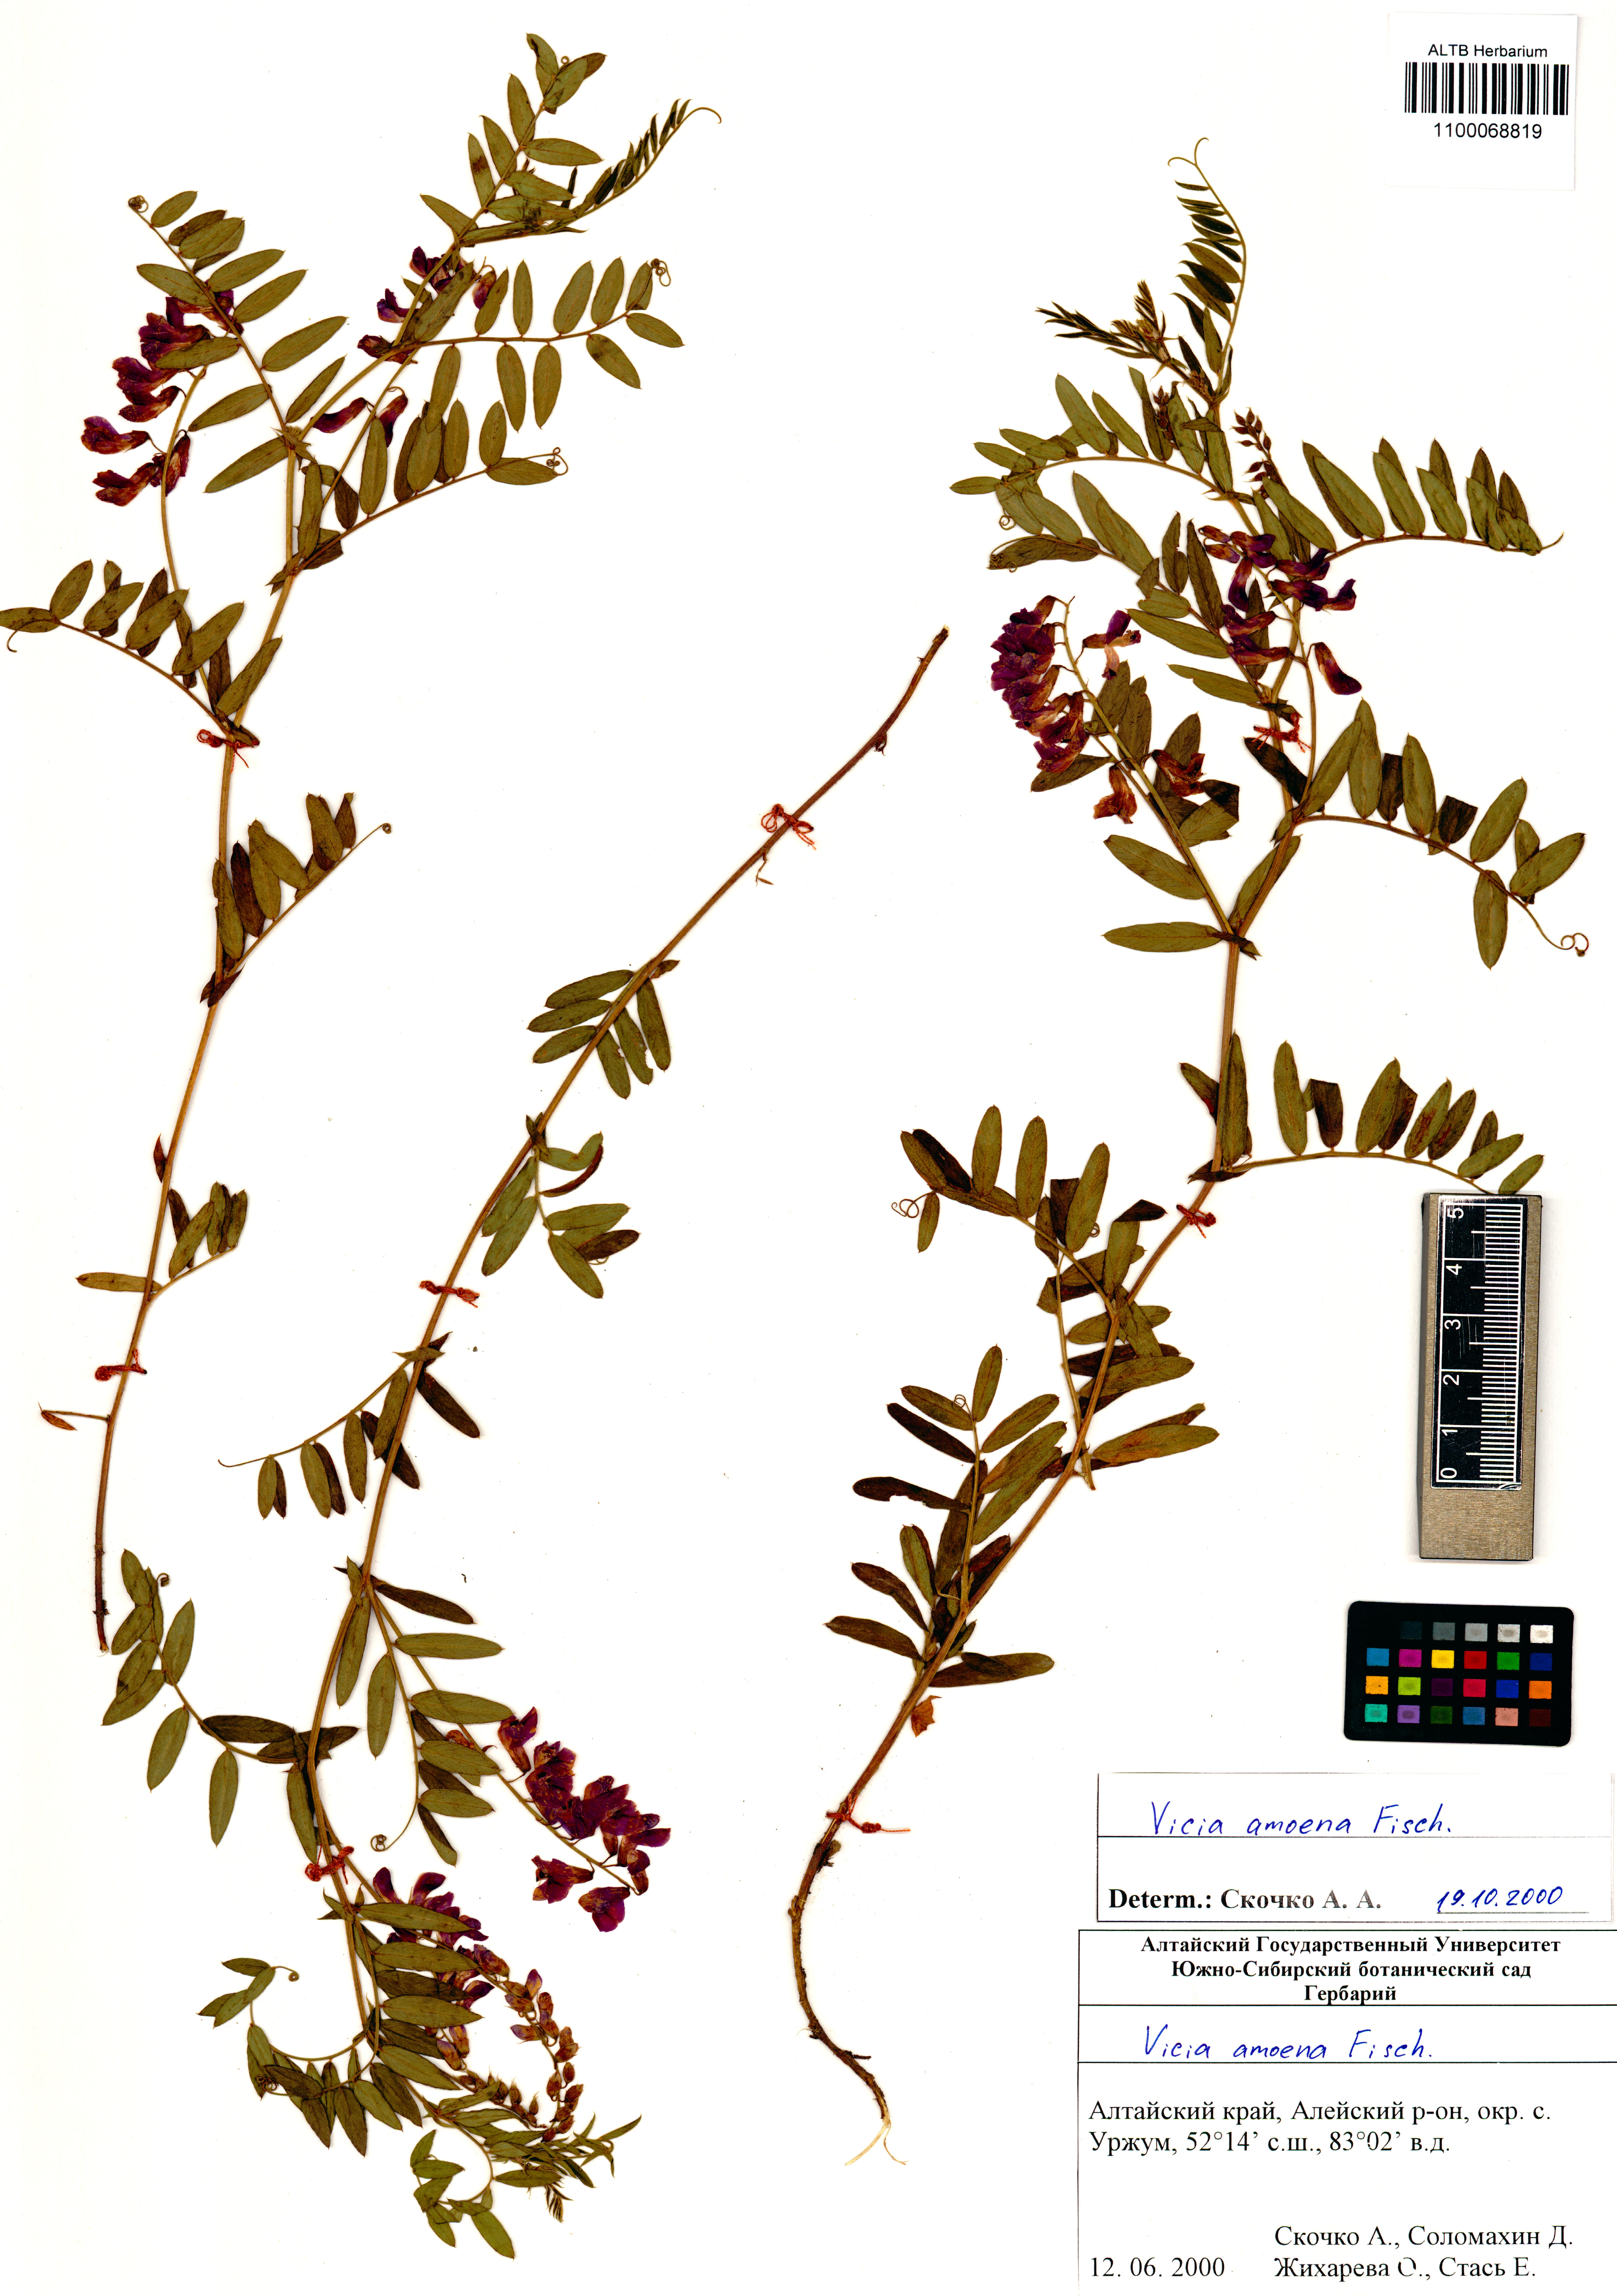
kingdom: Plantae
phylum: Tracheophyta
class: Magnoliopsida
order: Fabales
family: Fabaceae
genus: Vicia
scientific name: Vicia amoena
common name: Cheder ebs
